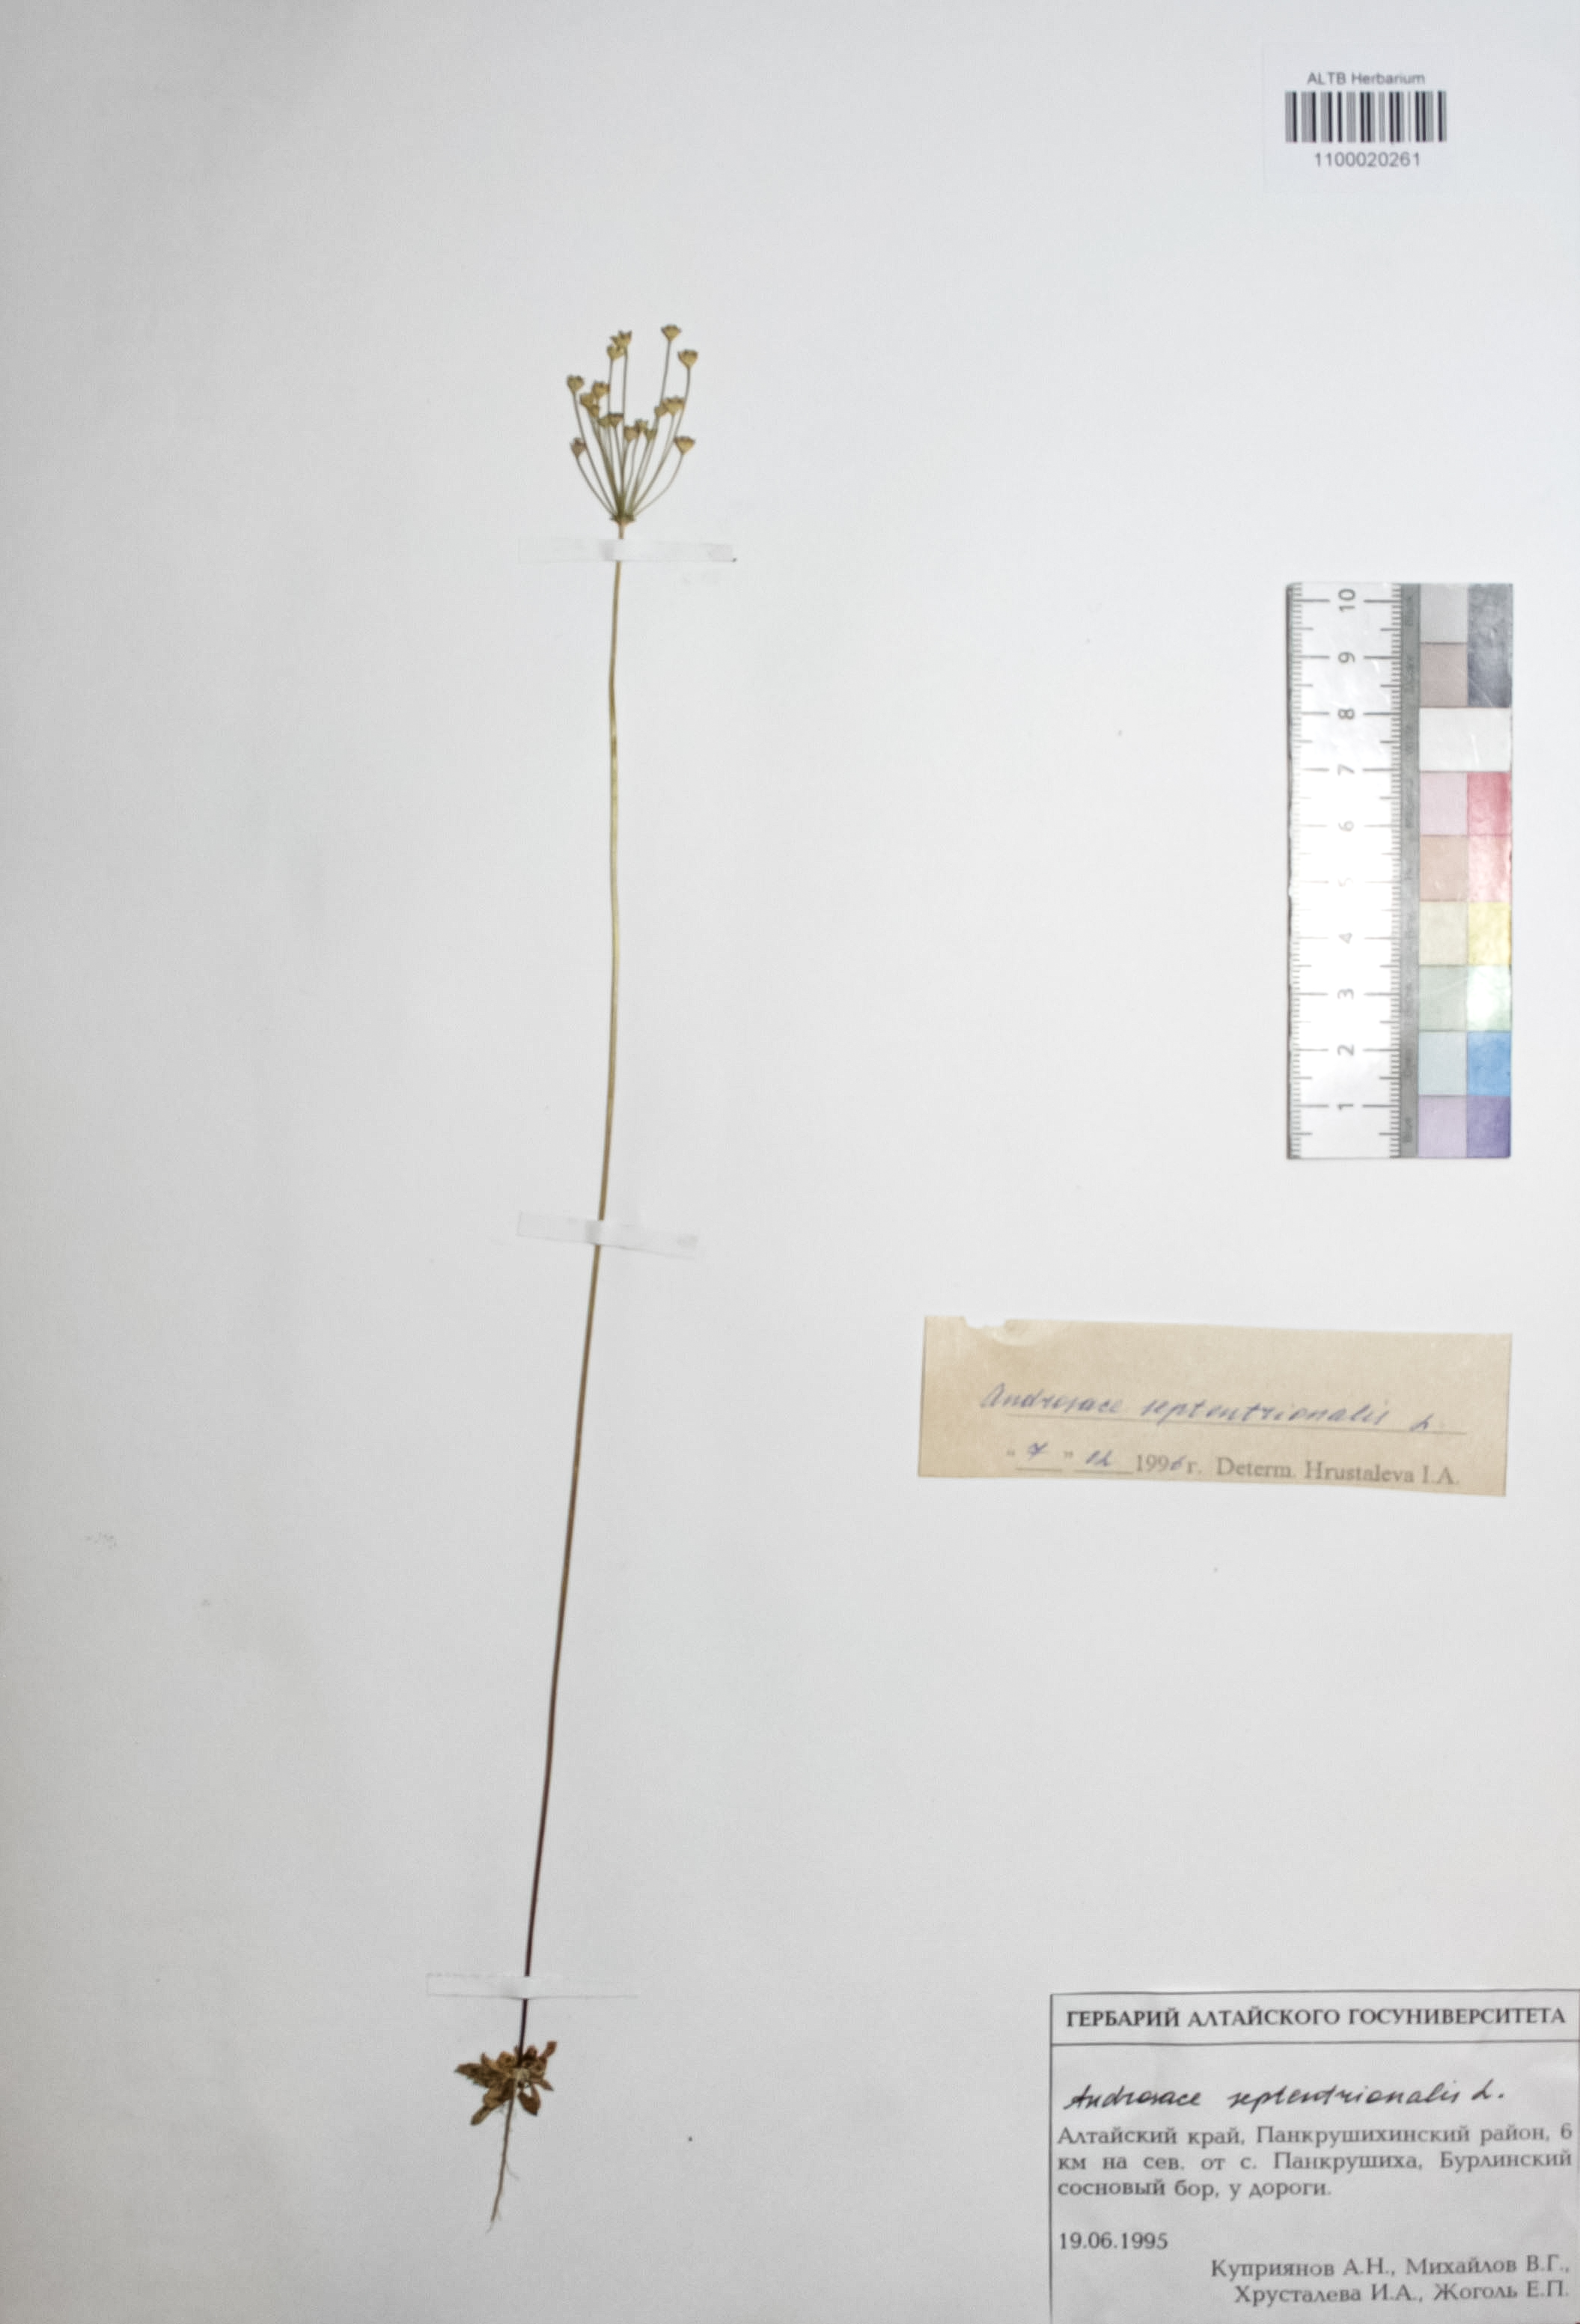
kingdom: Plantae
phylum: Tracheophyta
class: Magnoliopsida
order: Ericales
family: Primulaceae
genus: Androsace
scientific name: Androsace septentrionalis
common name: Hairy northern fairy-candelabra
